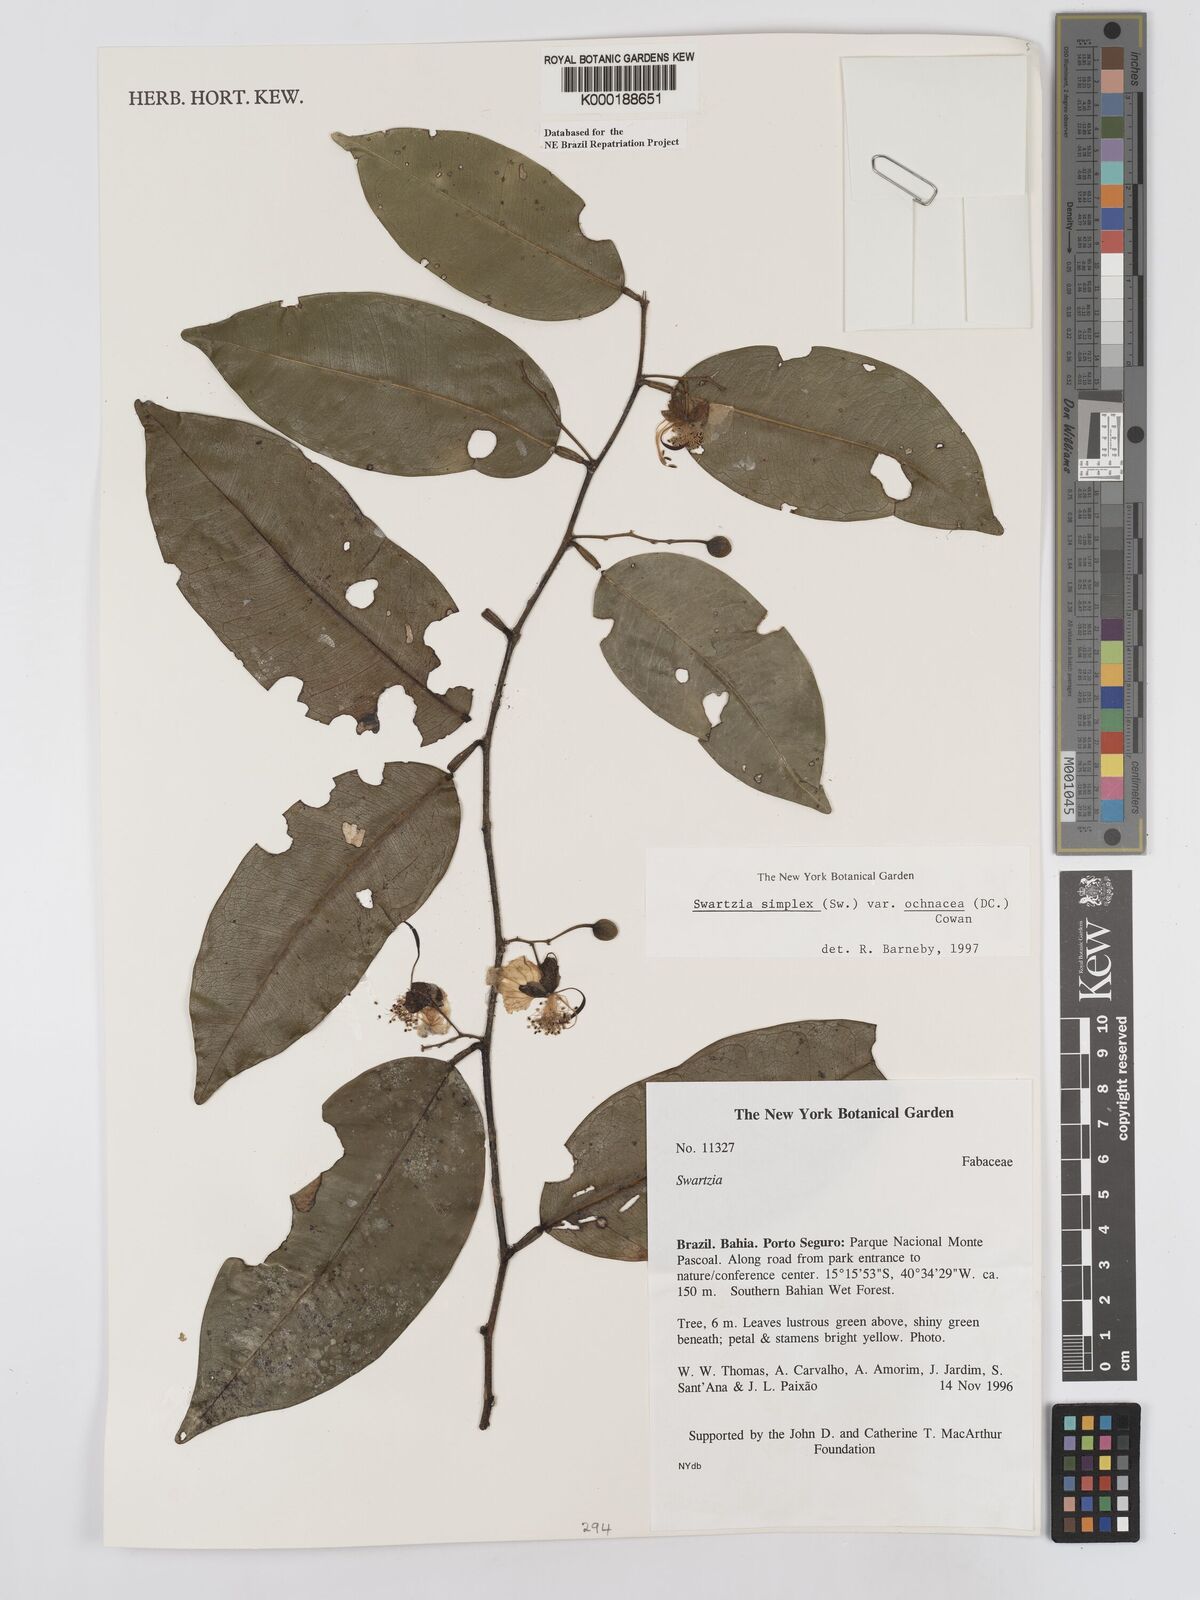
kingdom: Plantae
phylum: Tracheophyta
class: Magnoliopsida
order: Fabales
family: Fabaceae
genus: Swartzia
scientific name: Swartzia simplex
